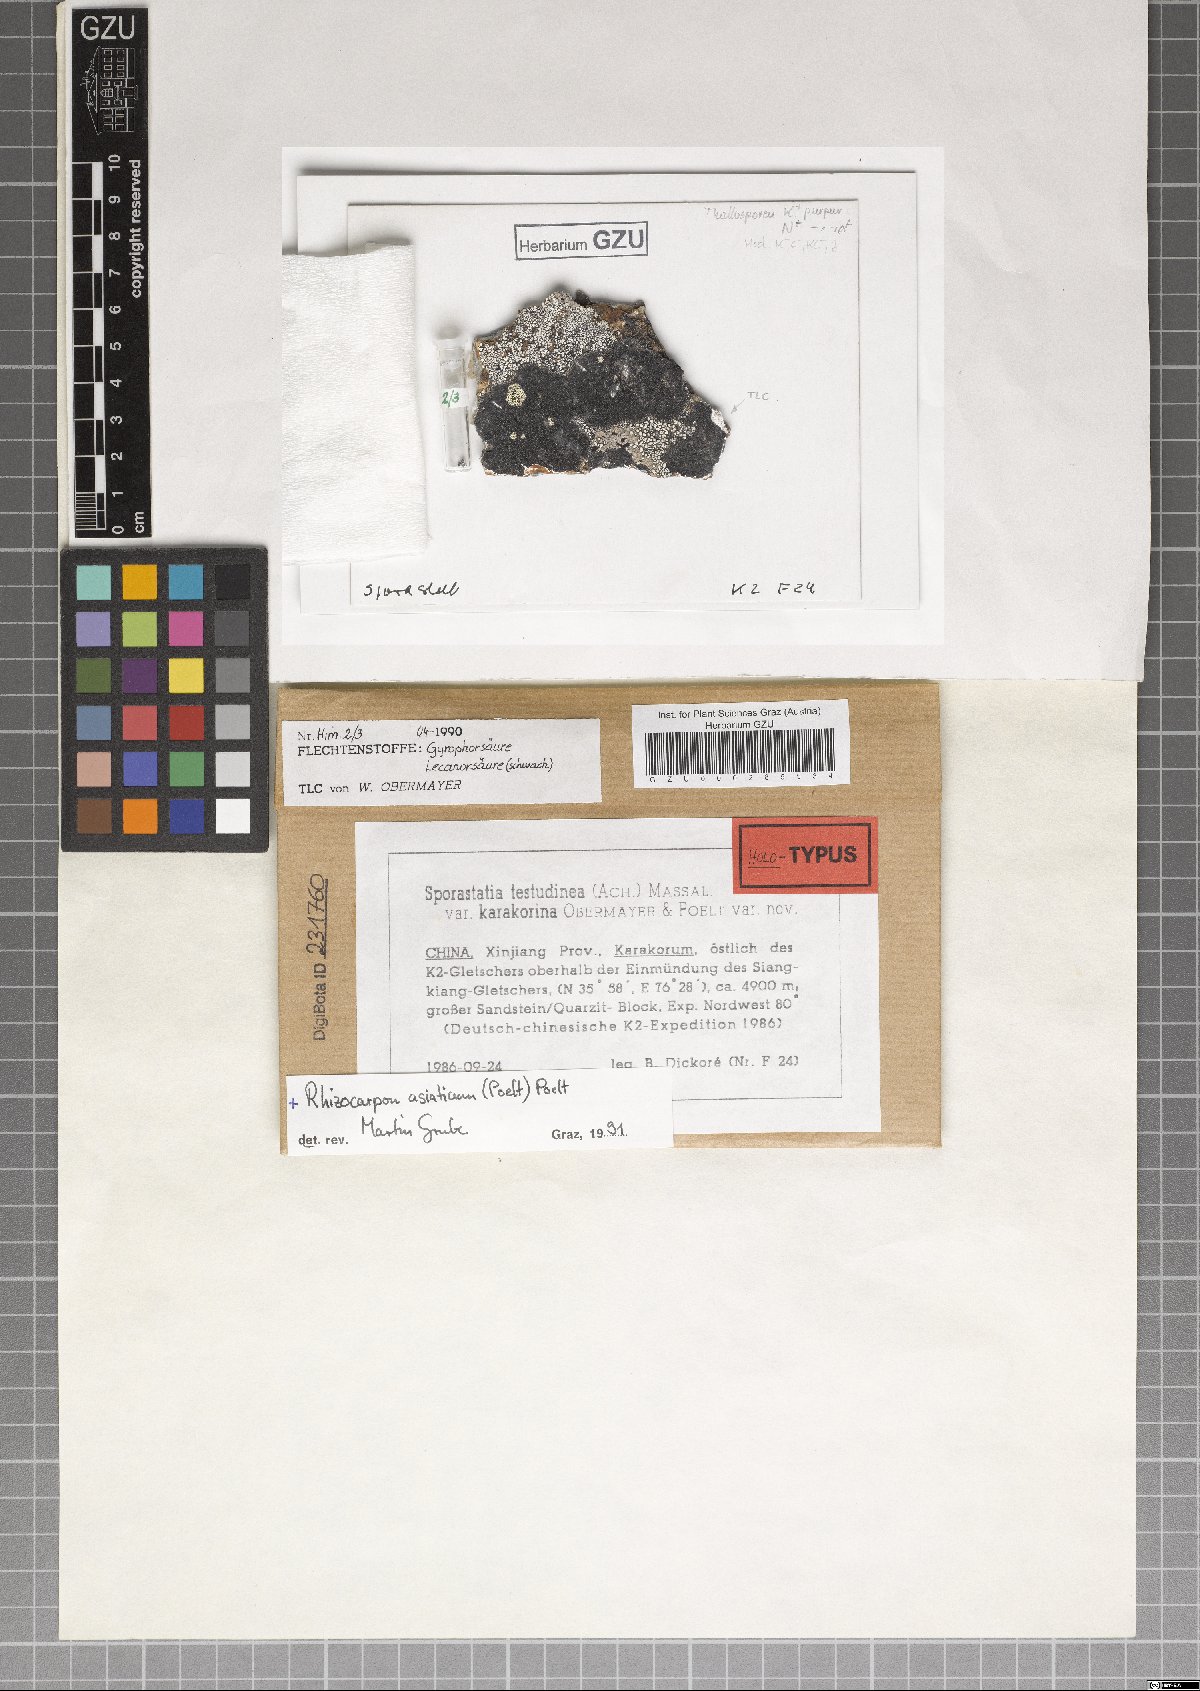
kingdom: Fungi
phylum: Ascomycota
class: Lecanoromycetes
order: Rhizocarpales
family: Sporastatiaceae
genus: Sporastatia
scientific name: Sporastatia karakorina
